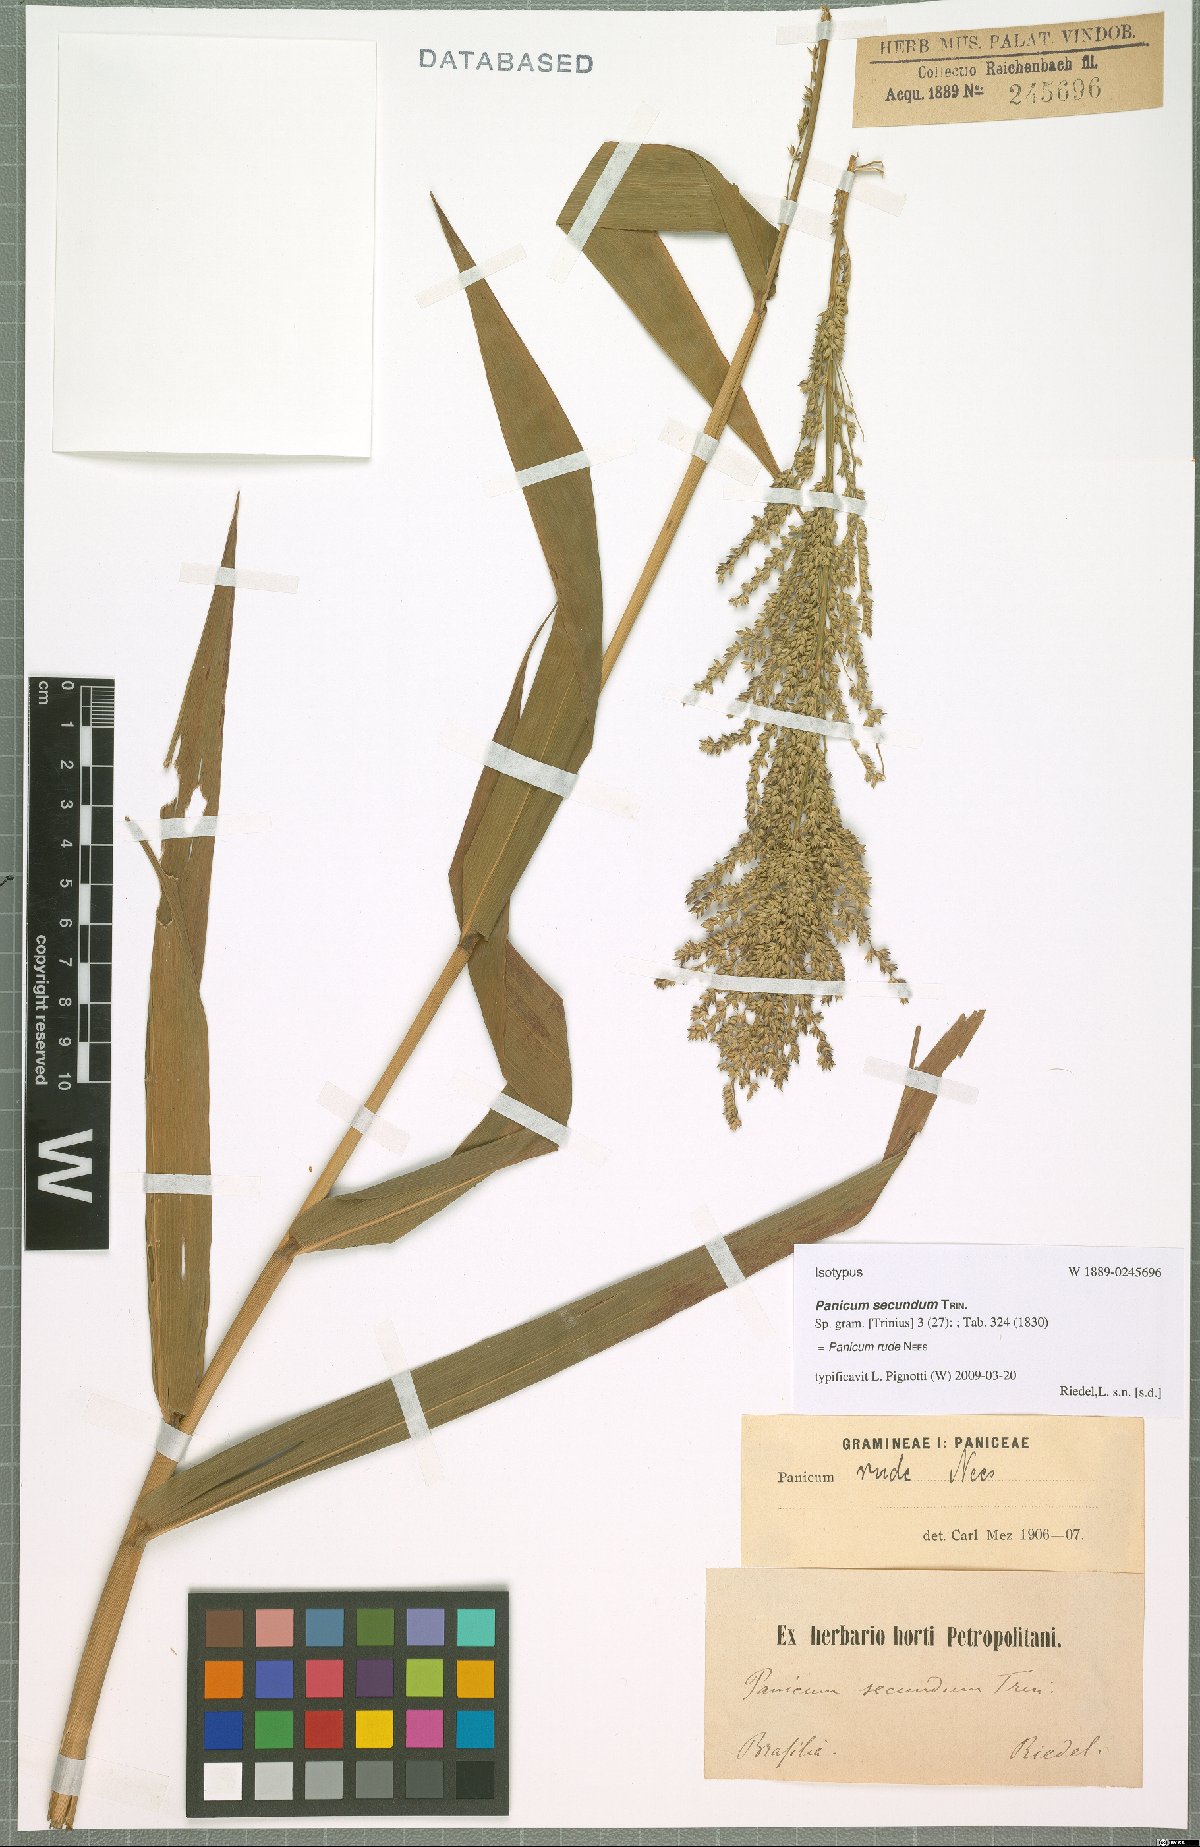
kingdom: Plantae
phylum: Tracheophyta
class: Liliopsida
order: Poales
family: Poaceae
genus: Ocellochloa
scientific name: Ocellochloa rudis
